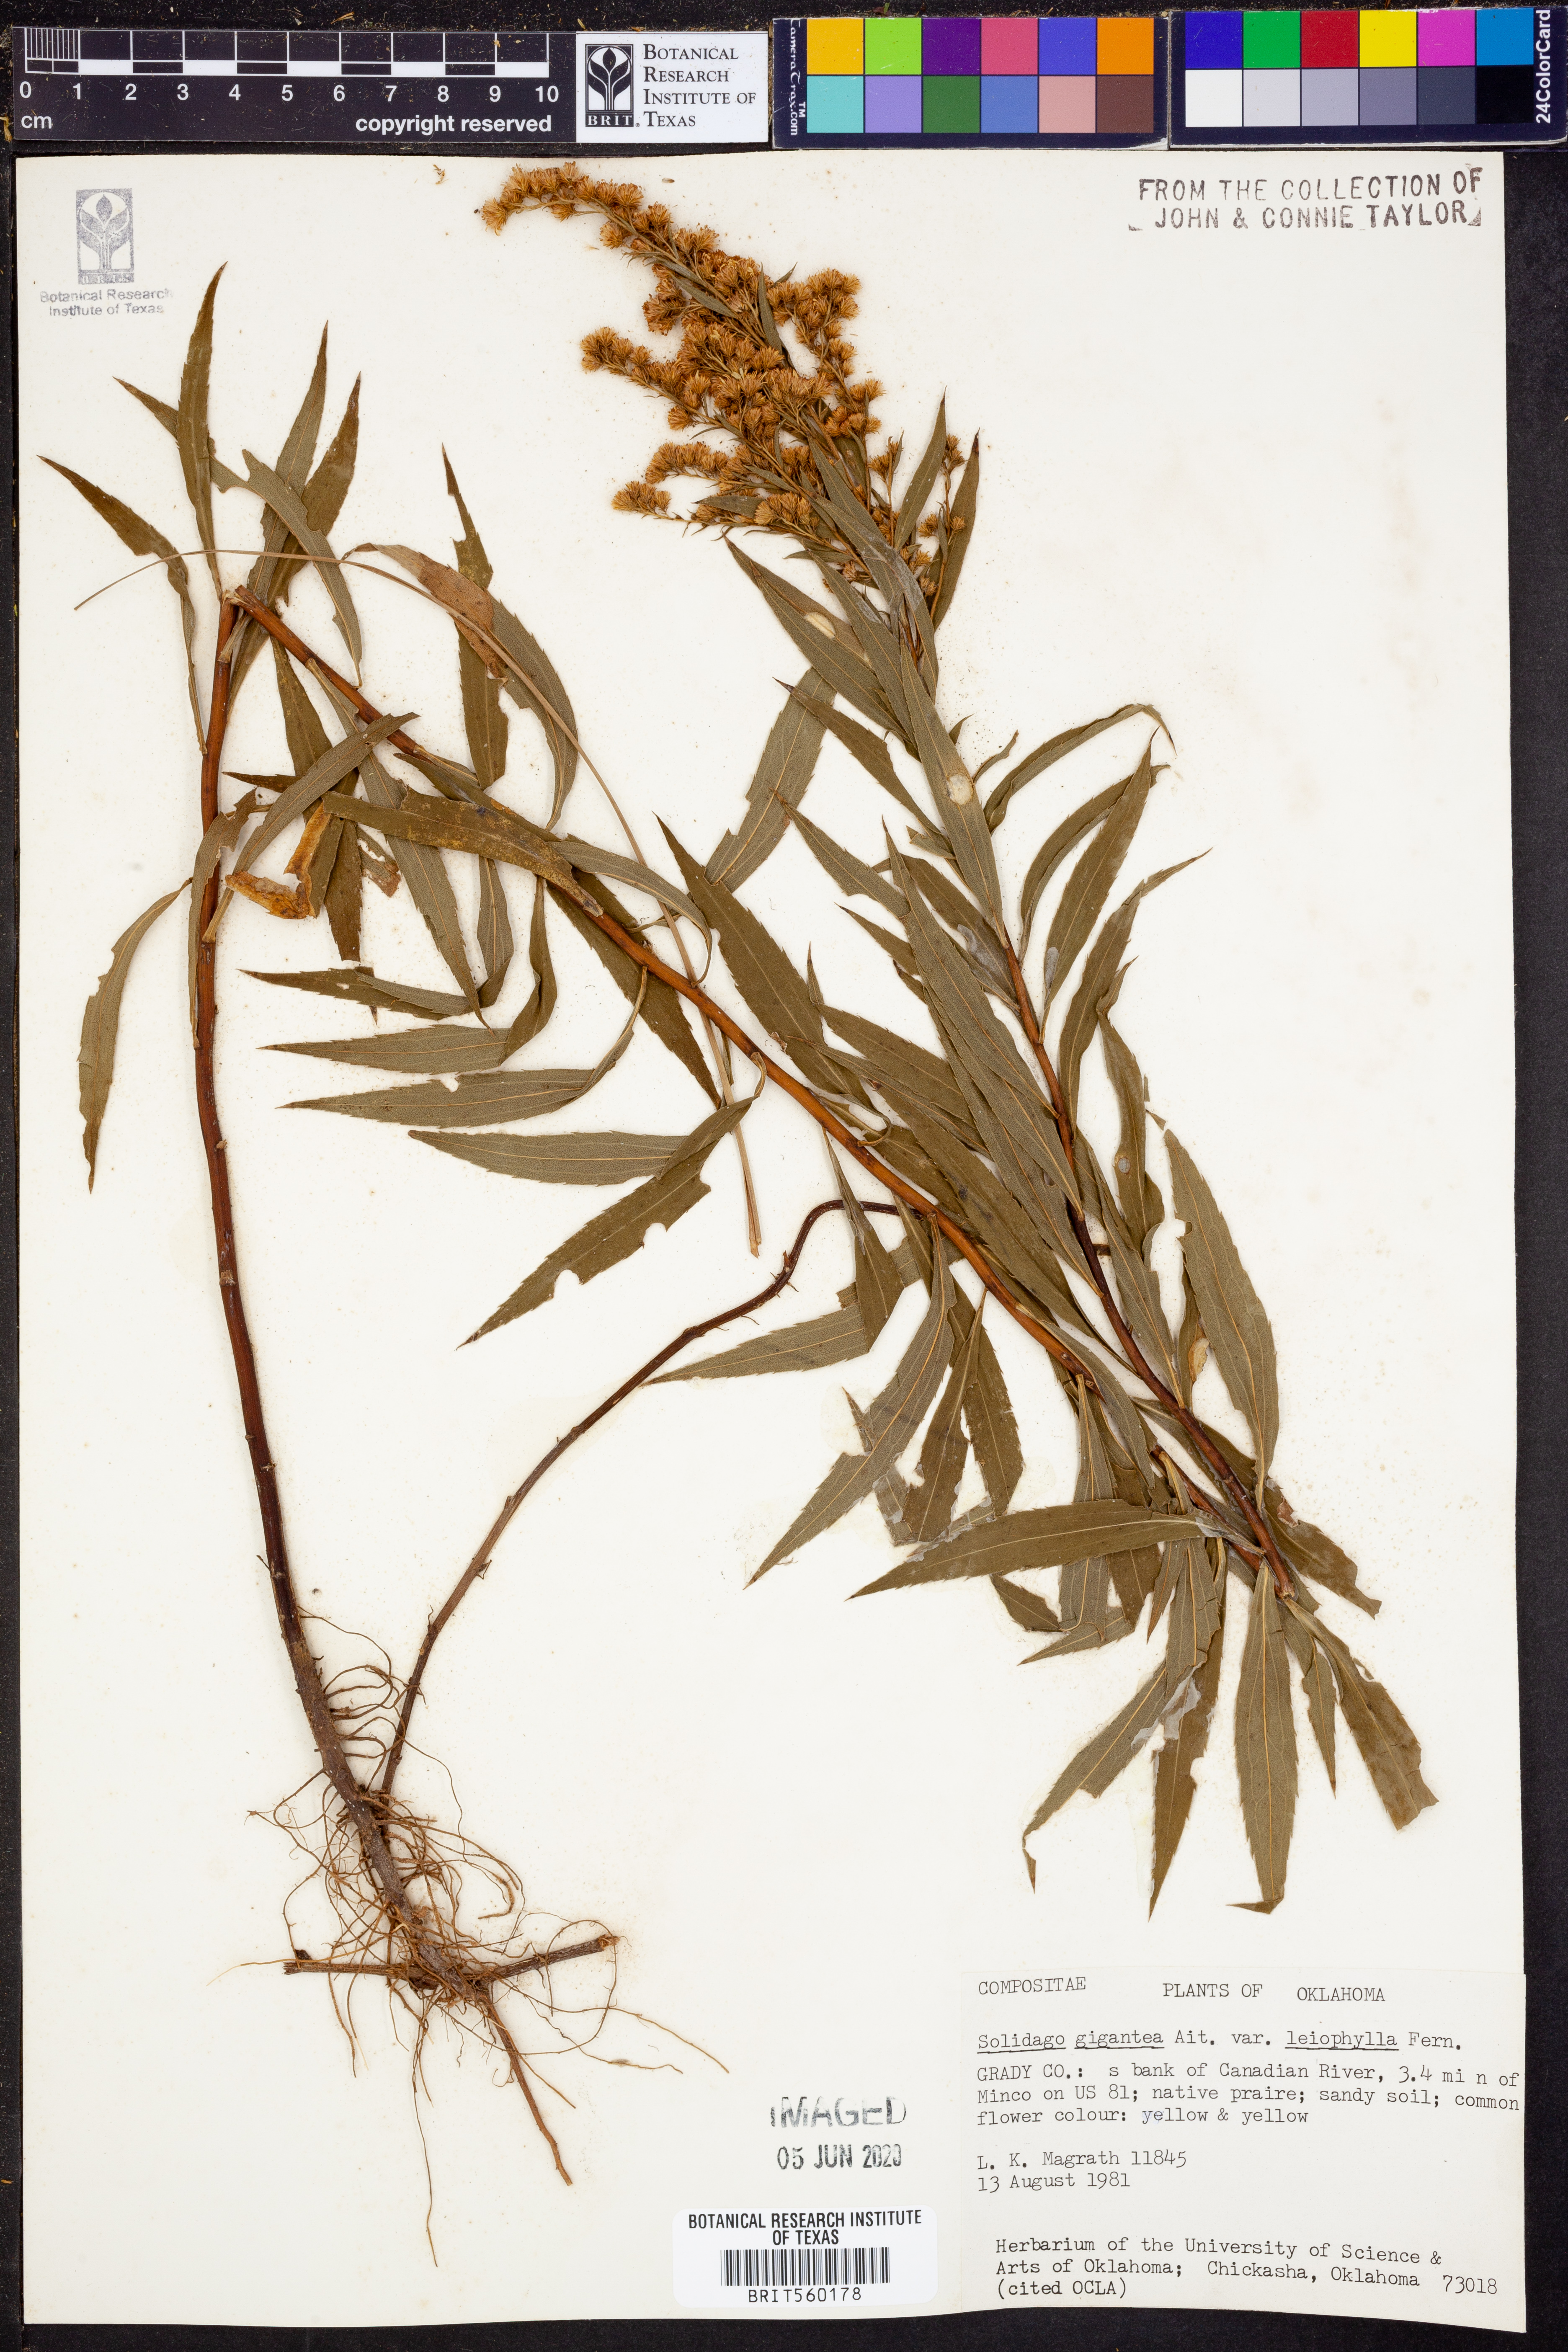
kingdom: Plantae
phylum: Tracheophyta
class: Magnoliopsida
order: Asterales
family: Asteraceae
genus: Solidago
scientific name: Solidago gigantea
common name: Giant goldenrod
